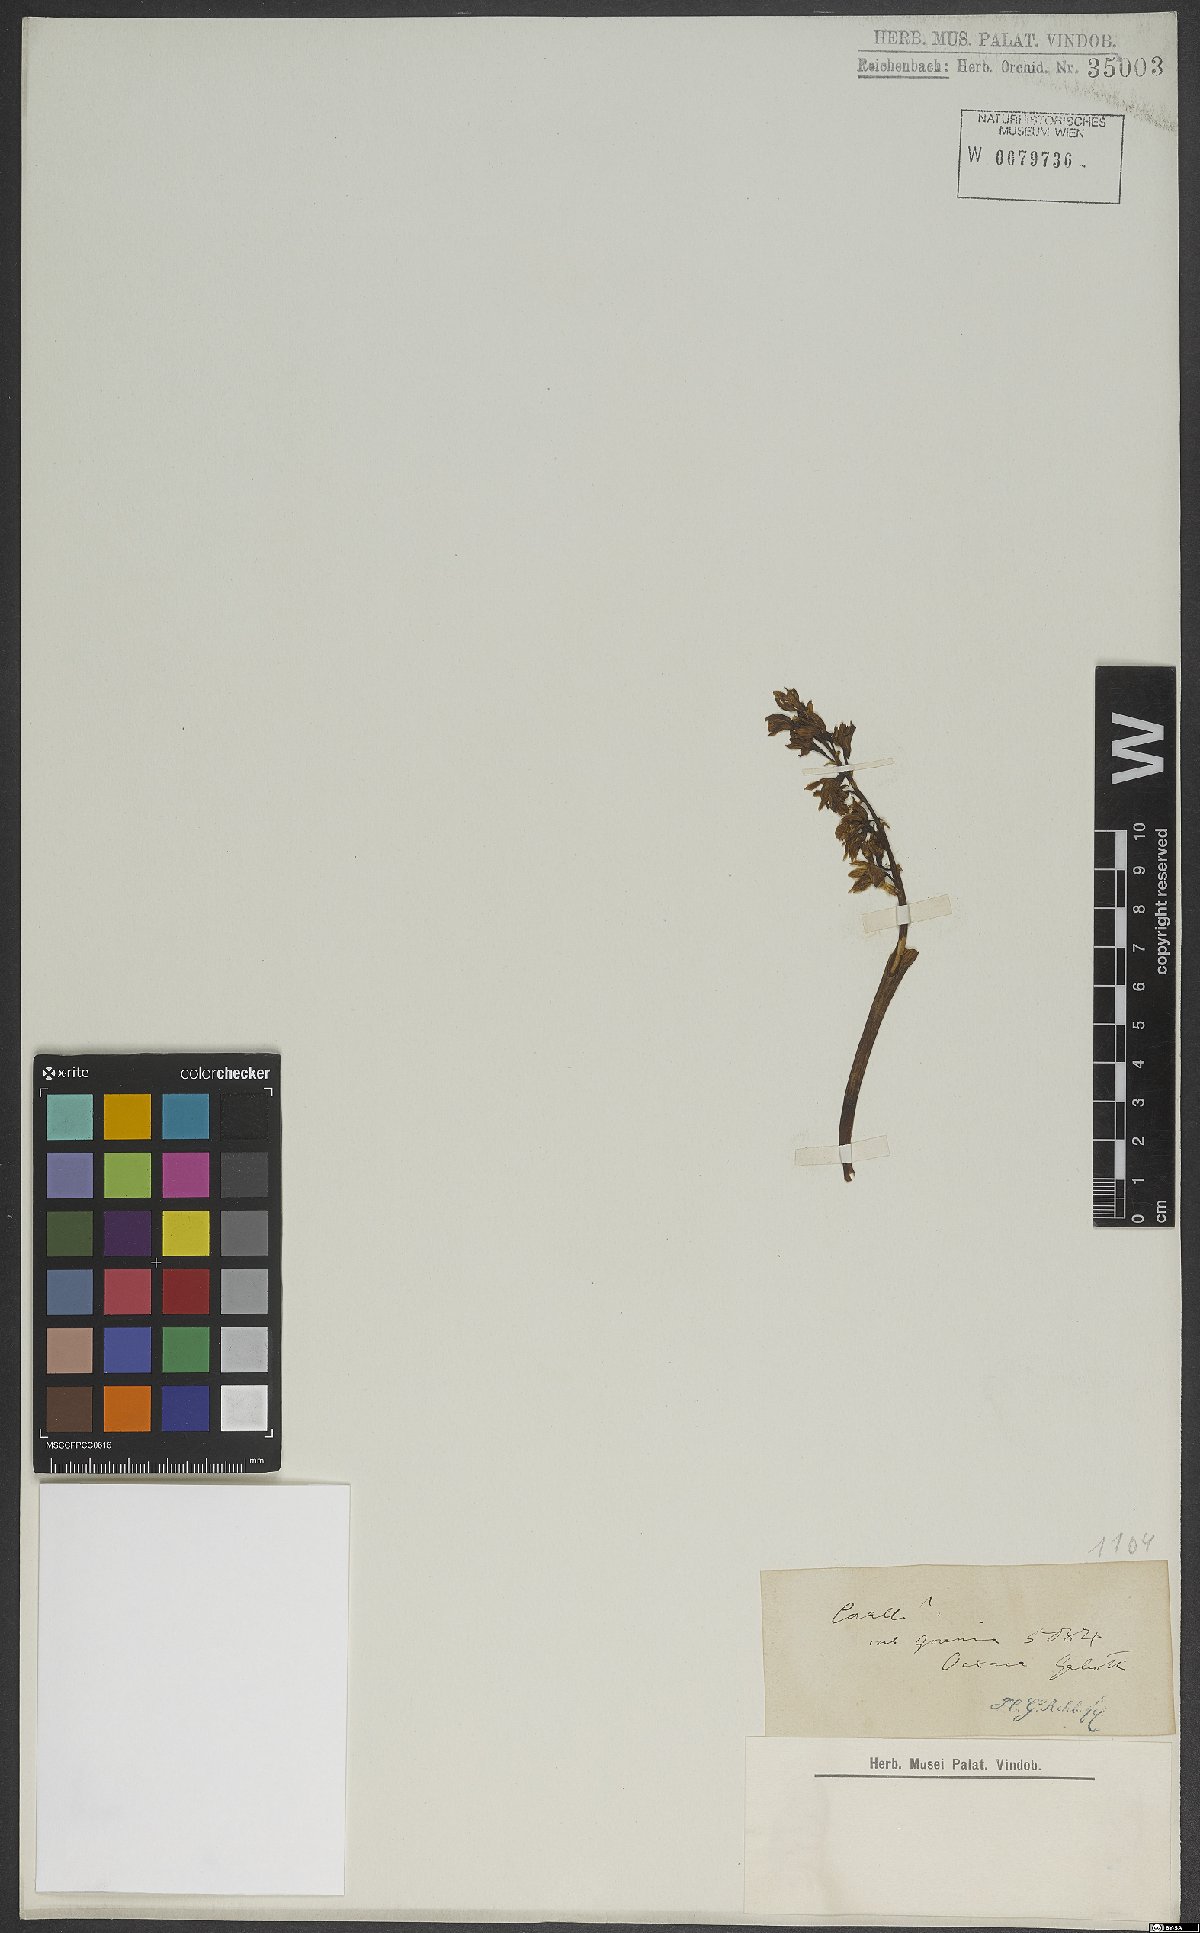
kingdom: Plantae
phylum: Tracheophyta
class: Liliopsida
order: Asparagales
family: Orchidaceae
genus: Corallorhiza
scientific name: Corallorhiza trifida
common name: Yellow coralroot
